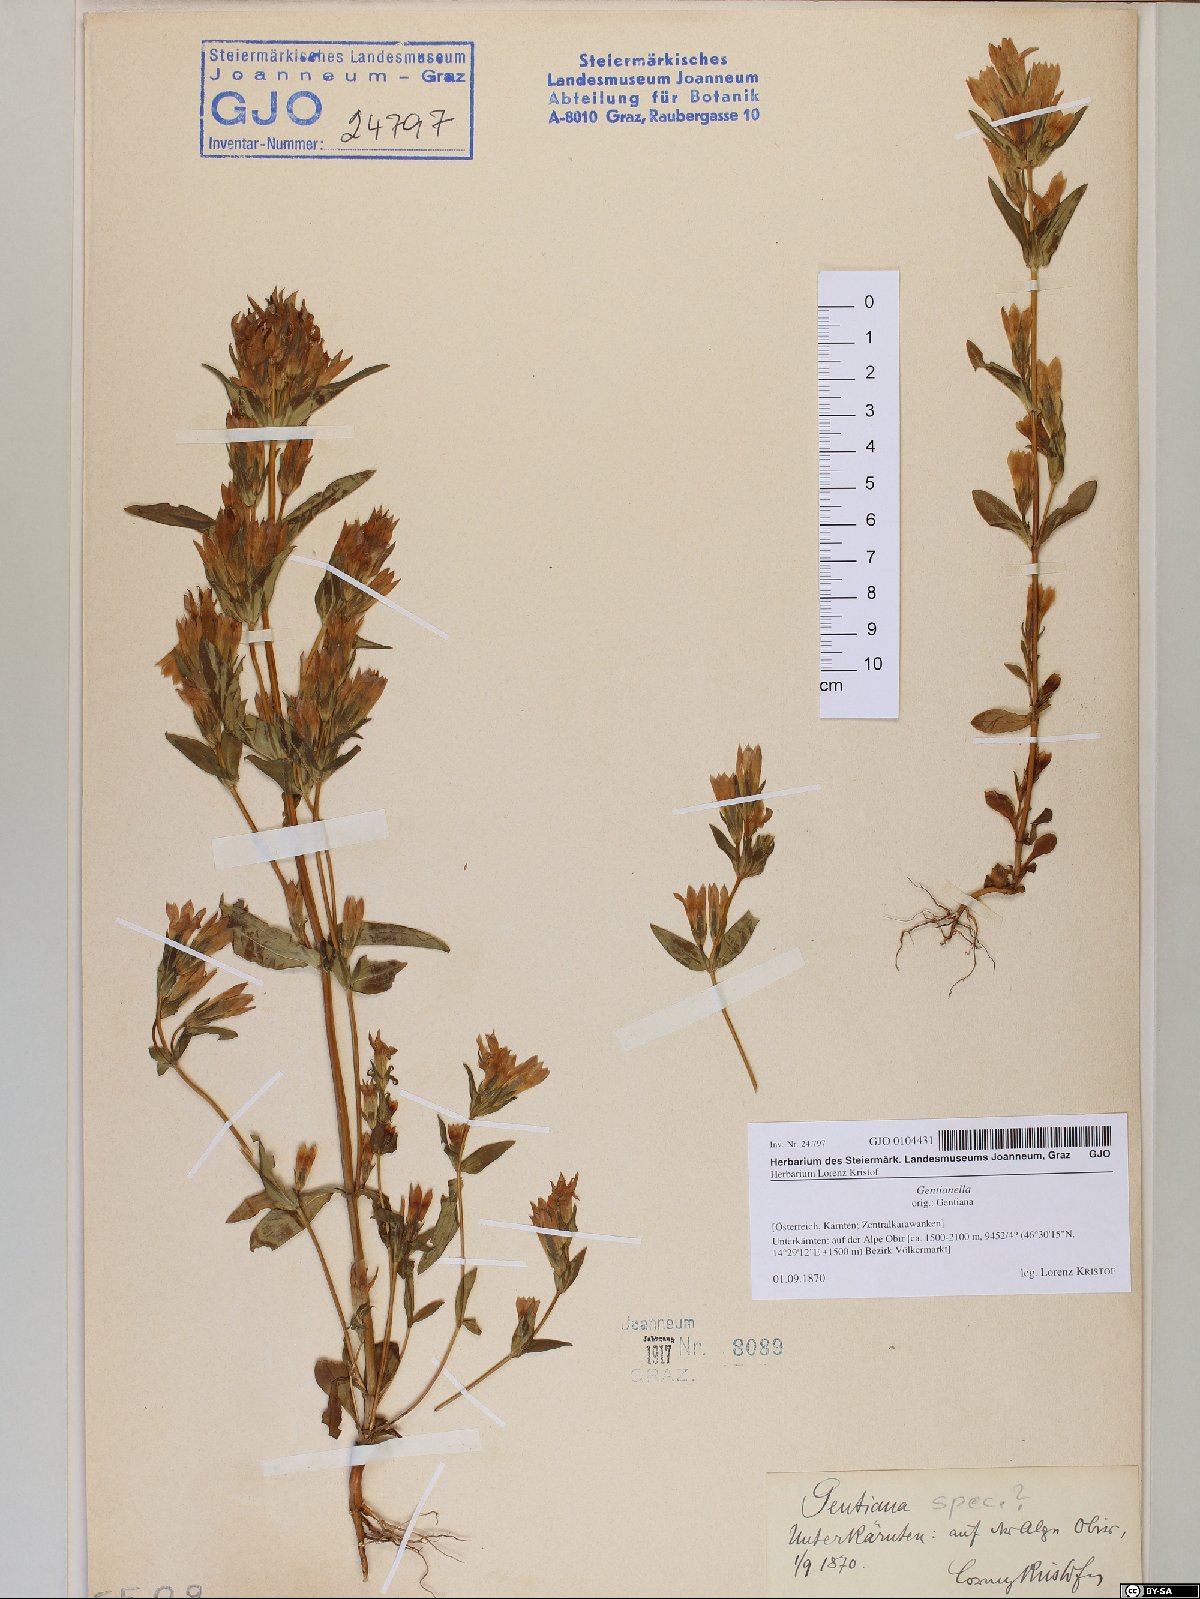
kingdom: Plantae
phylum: Tracheophyta
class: Magnoliopsida
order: Gentianales
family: Gentianaceae
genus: Gentianella
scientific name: Gentianella
